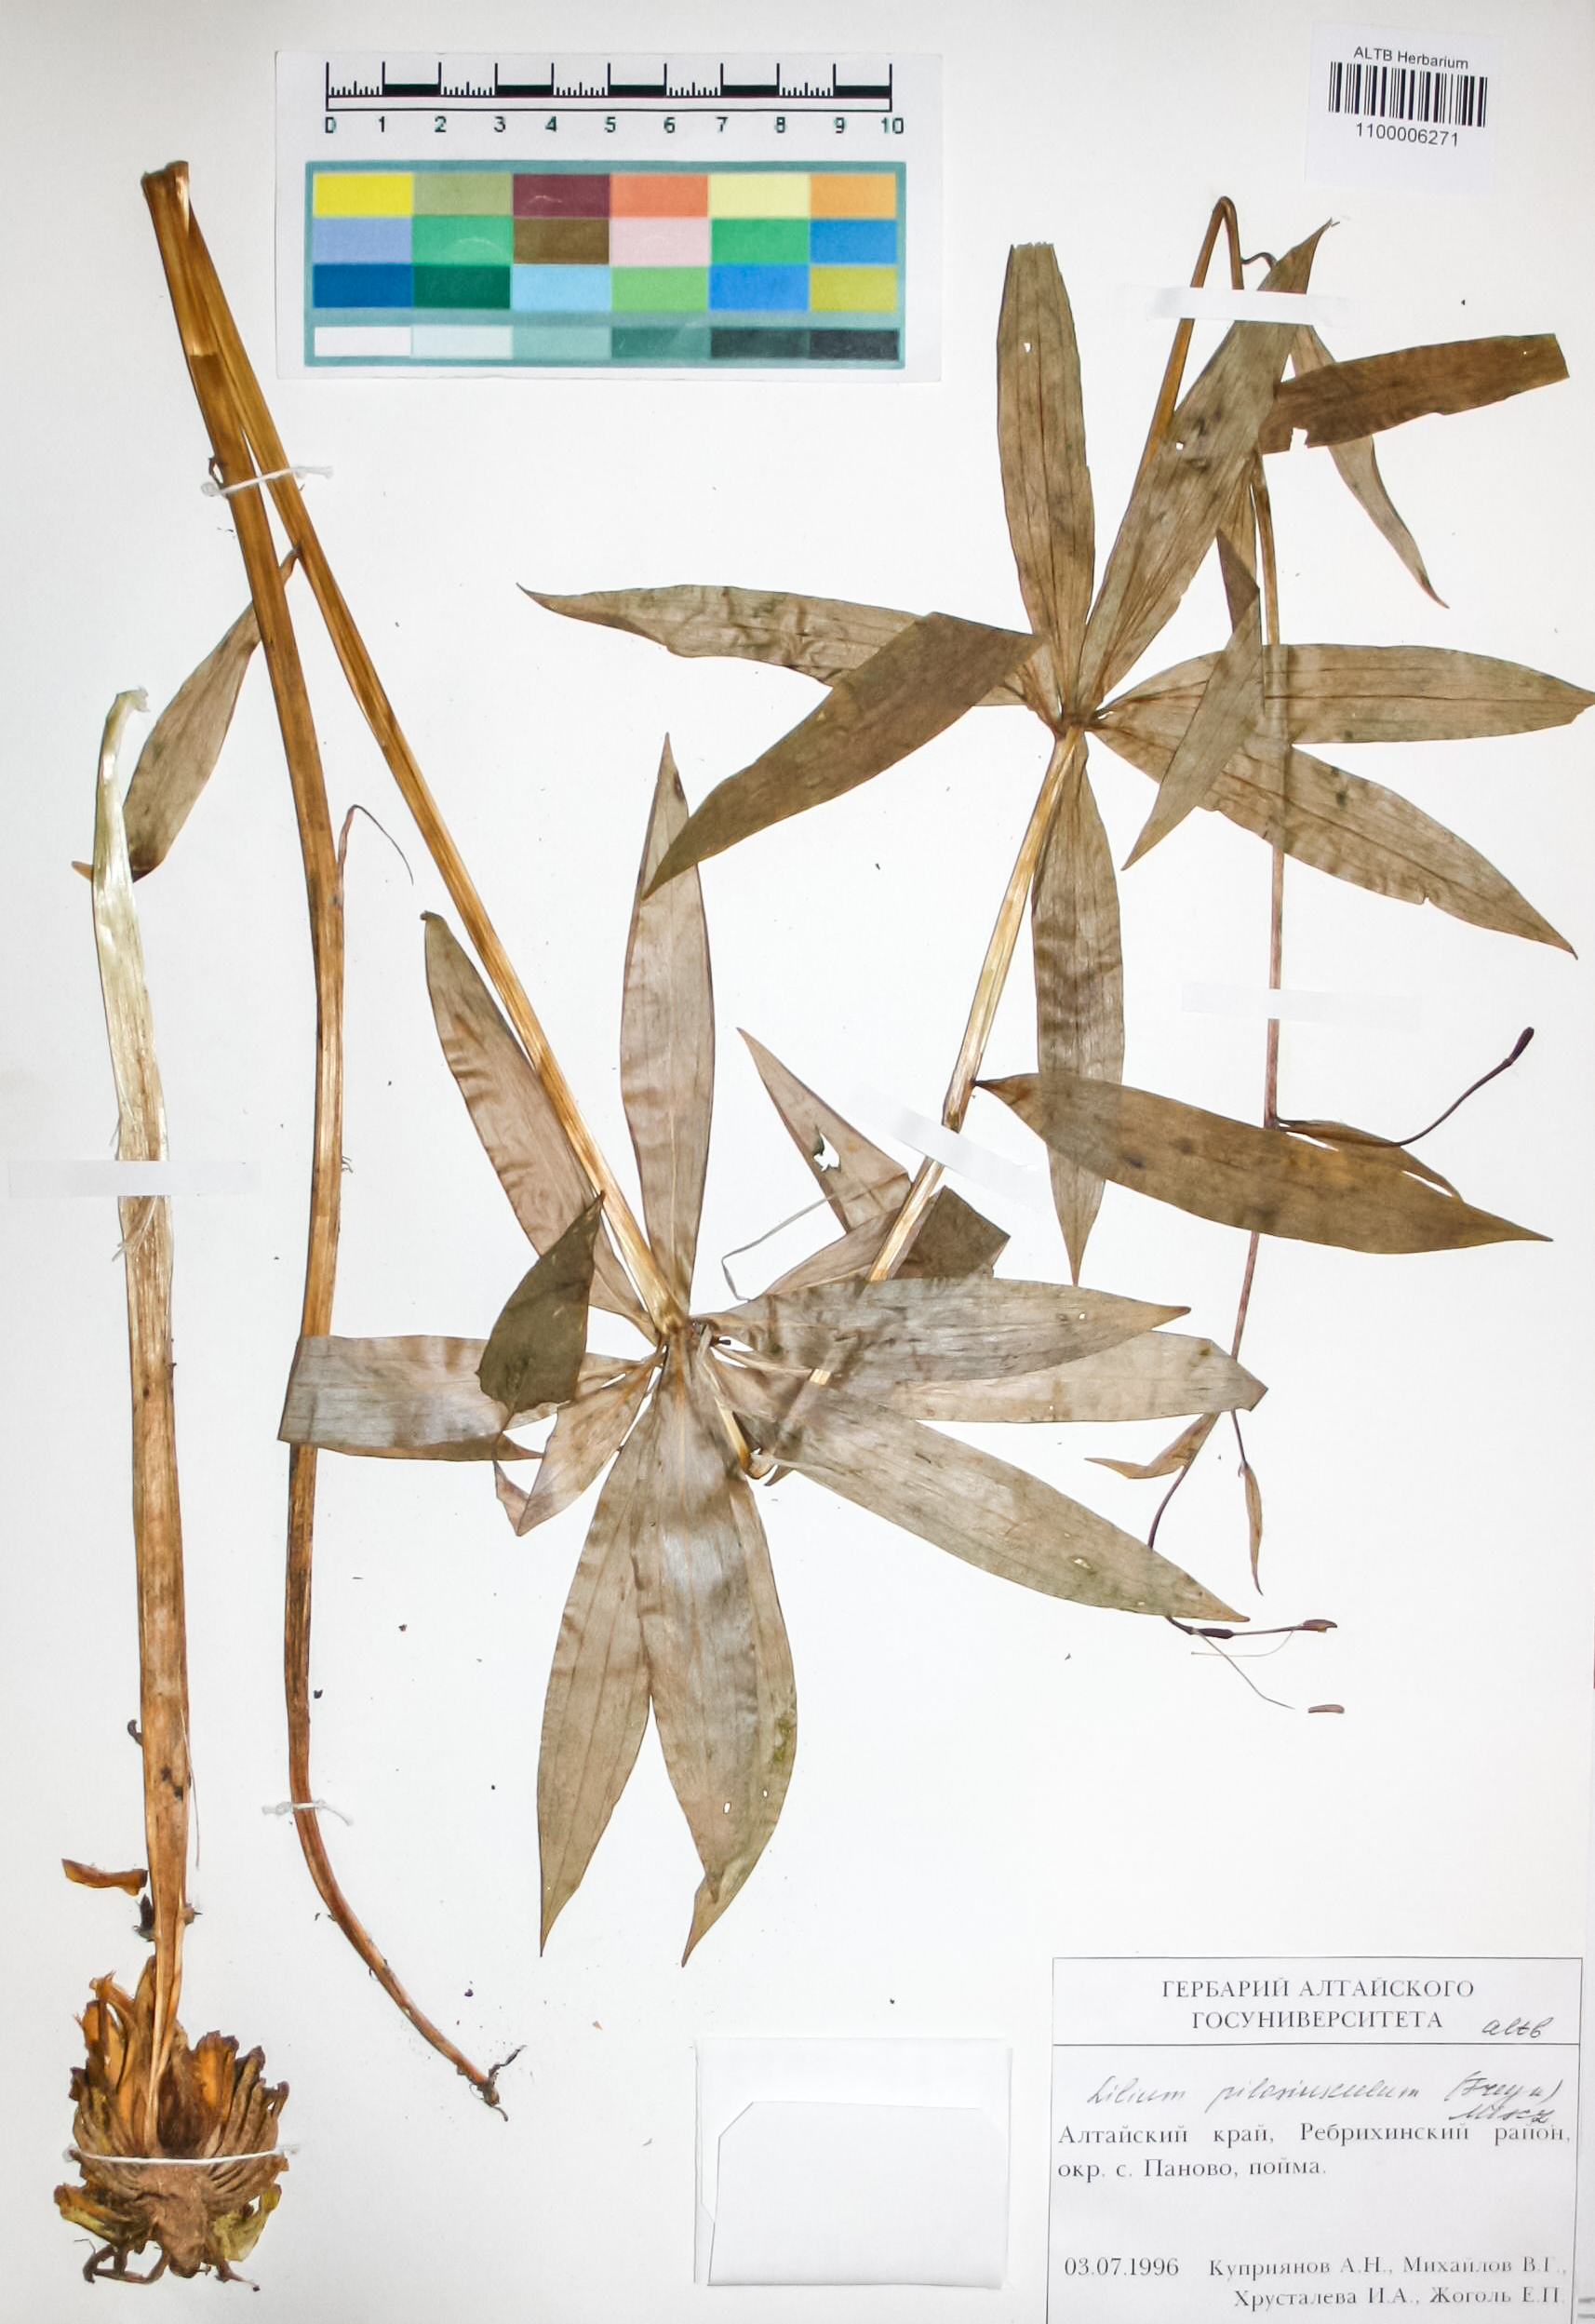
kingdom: Plantae
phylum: Tracheophyta
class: Liliopsida
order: Liliales
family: Liliaceae
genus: Lilium
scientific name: Lilium martagon
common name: Martagon lily
